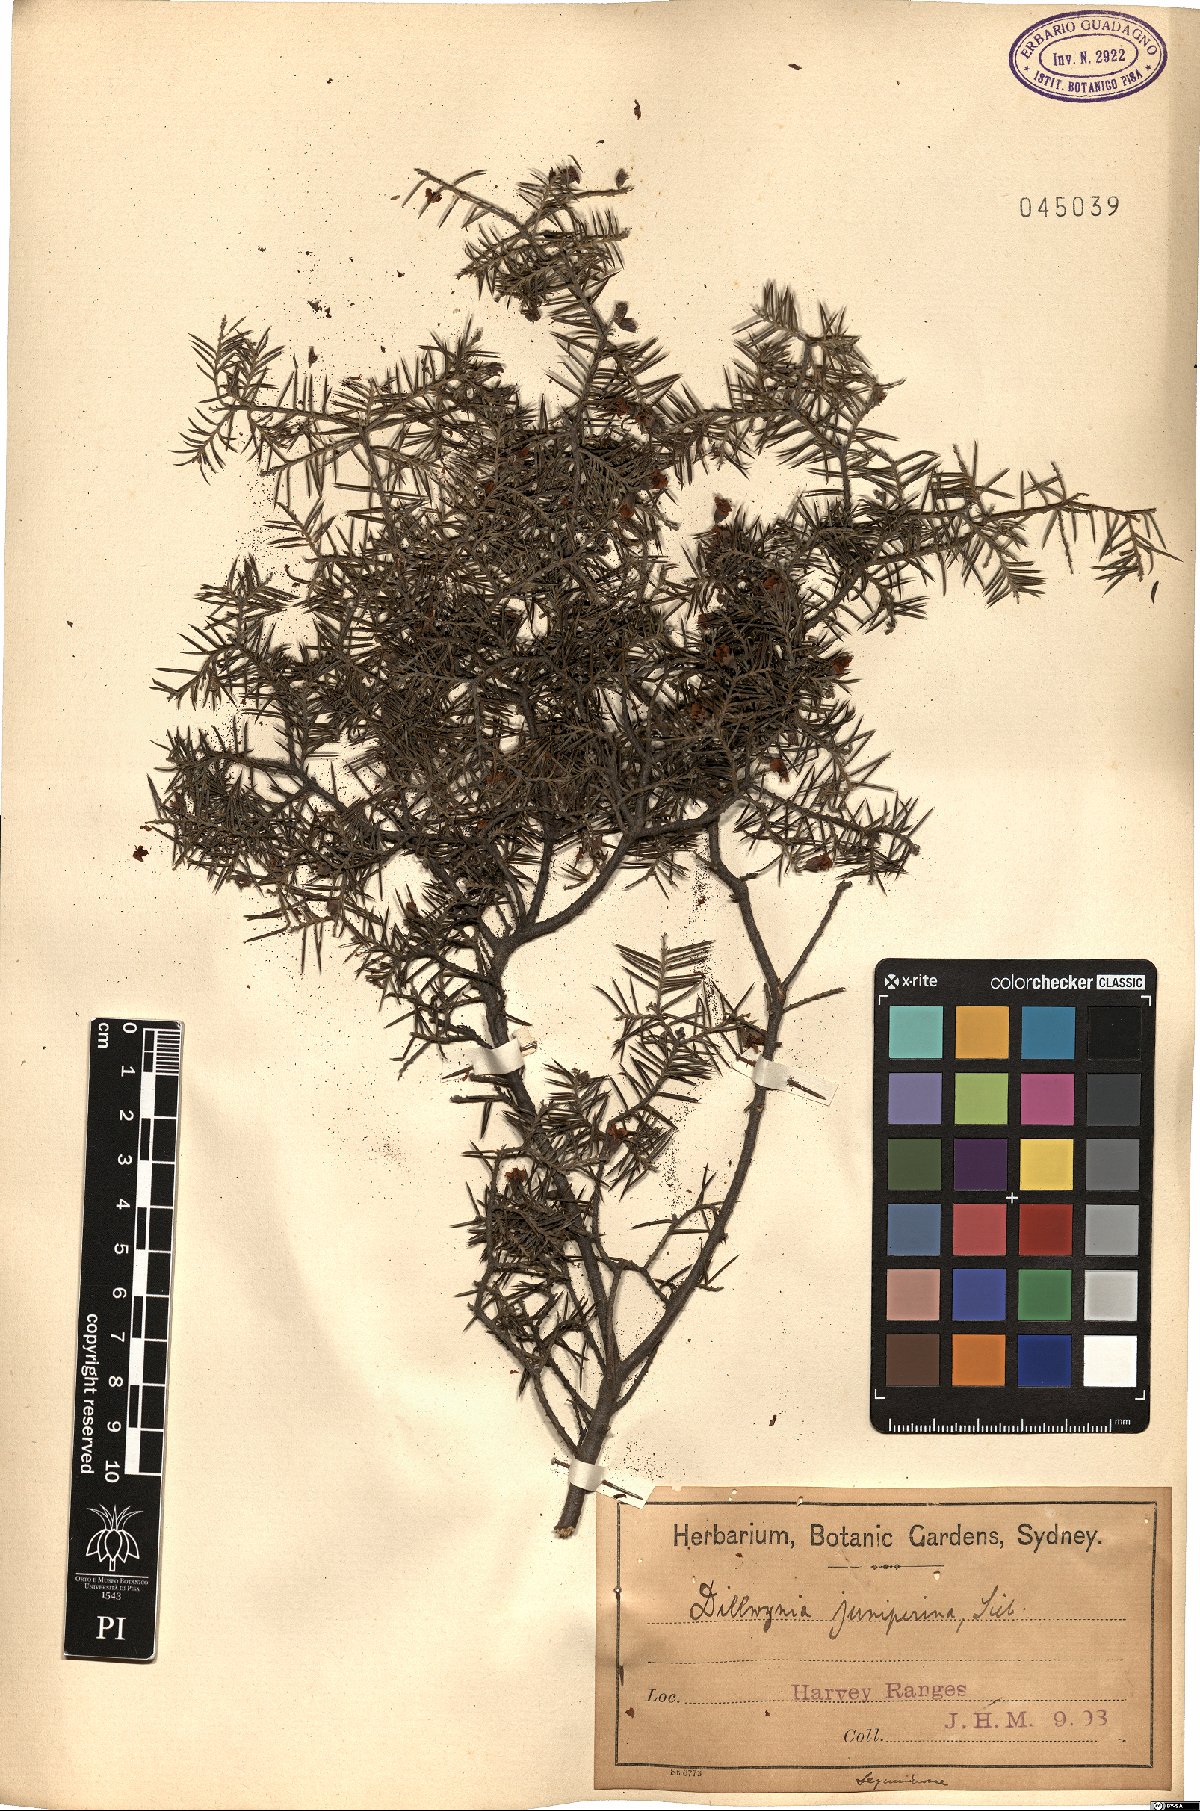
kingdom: Plantae
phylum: Tracheophyta
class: Magnoliopsida
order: Fabales
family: Fabaceae
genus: Dillwynia
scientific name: Dillwynia sieberi
